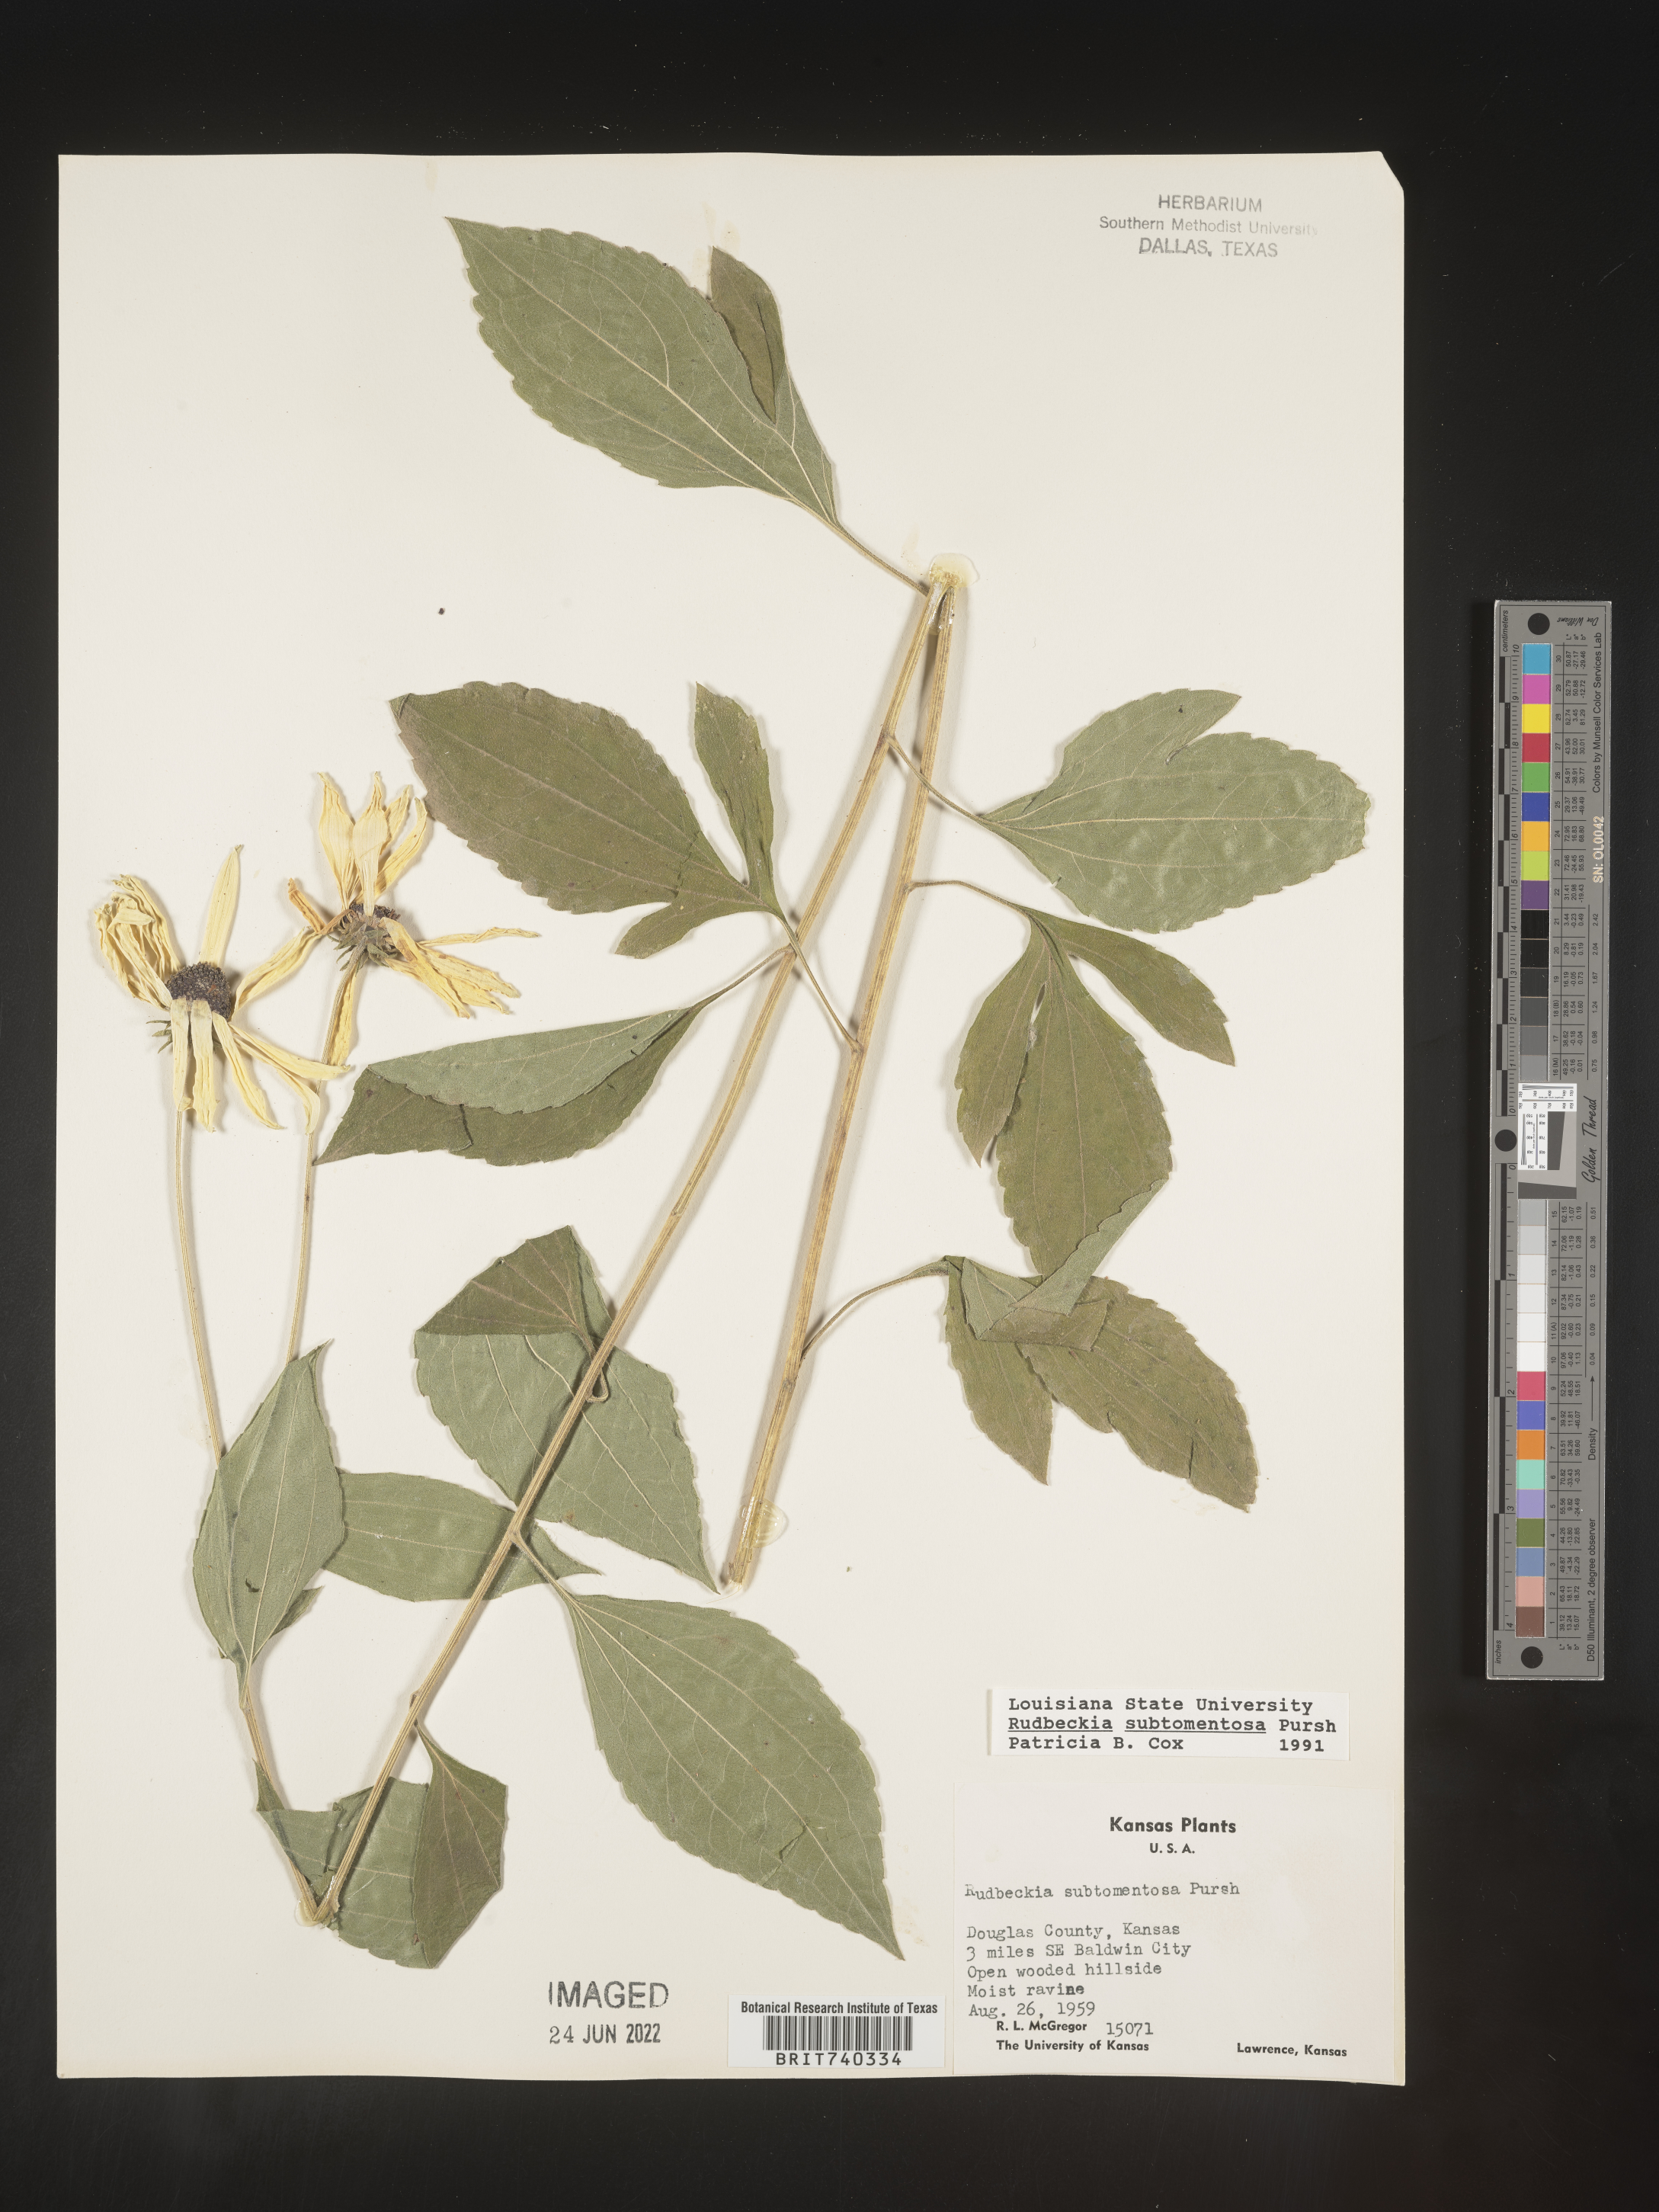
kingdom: Plantae
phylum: Tracheophyta
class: Magnoliopsida
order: Asterales
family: Asteraceae
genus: Rudbeckia
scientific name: Rudbeckia subtomentosa
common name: Sweet coneflower
